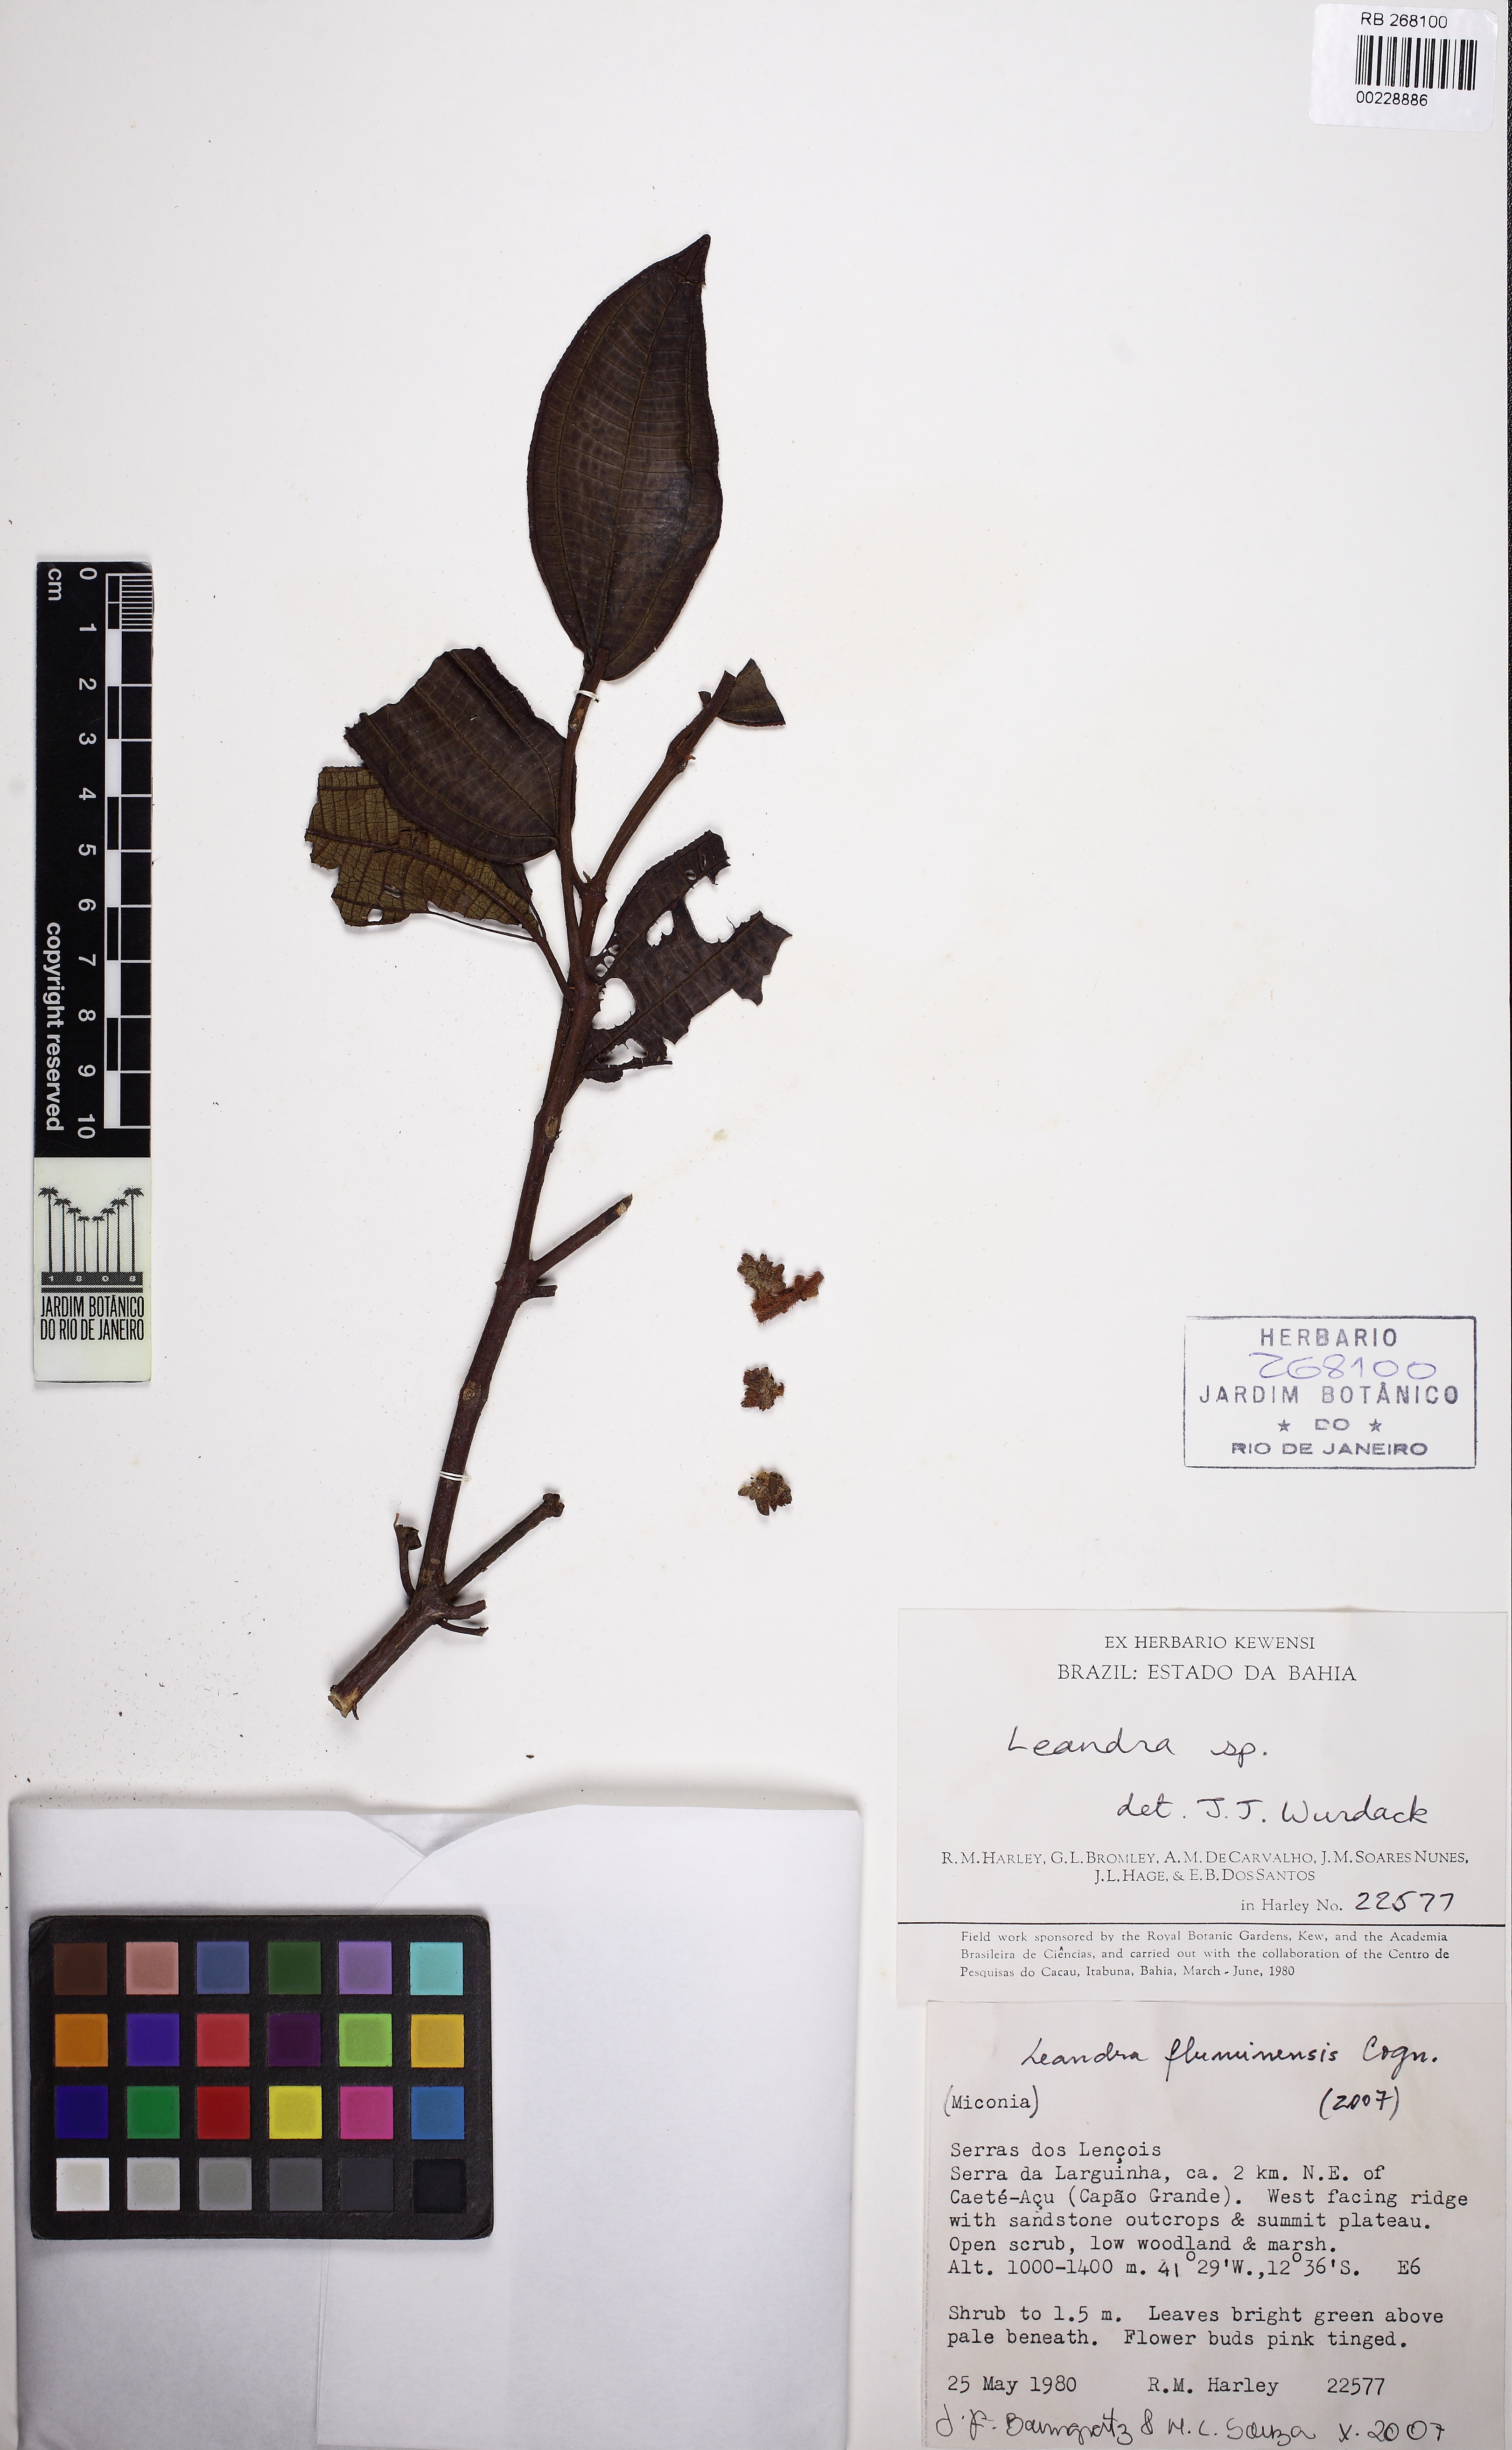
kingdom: Plantae
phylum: Tracheophyta
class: Magnoliopsida
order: Myrtales
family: Melastomataceae
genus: Miconia
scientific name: Miconia leafluminensis
